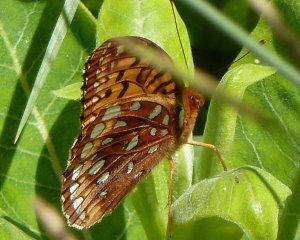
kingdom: Animalia
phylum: Arthropoda
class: Insecta
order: Lepidoptera
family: Nymphalidae
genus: Speyeria
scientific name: Speyeria aphrodite
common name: Aphrodite Fritillary
